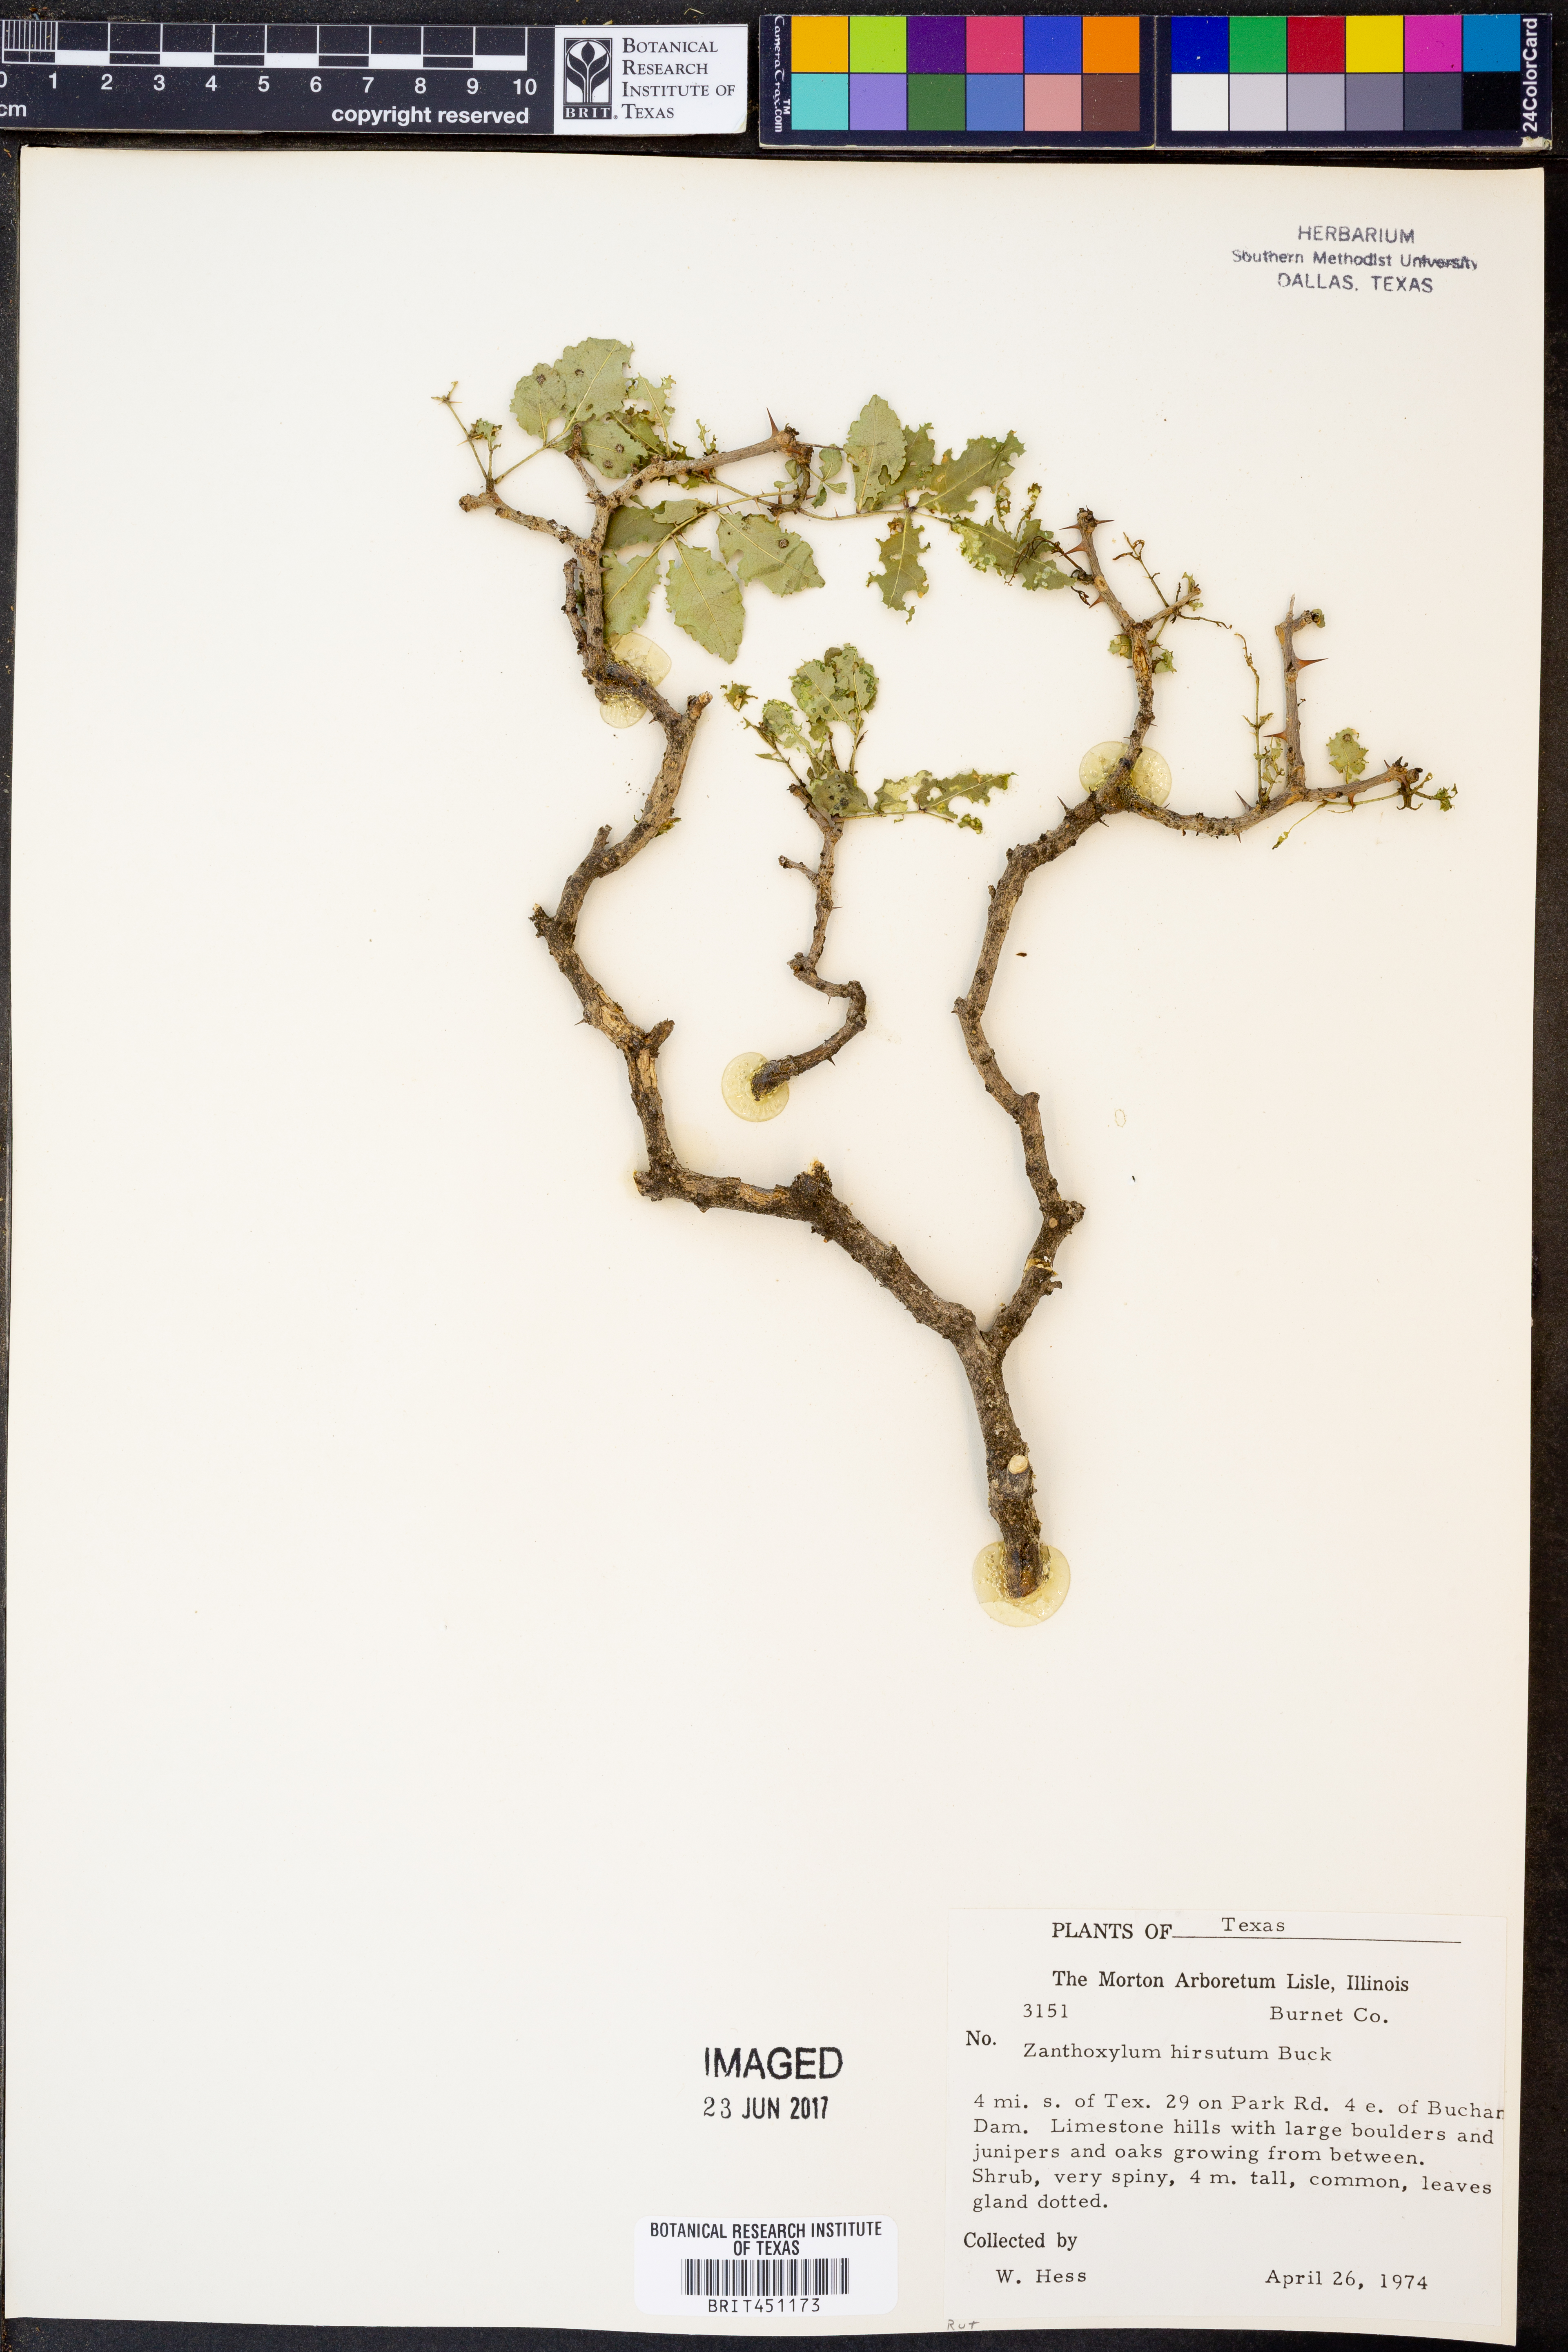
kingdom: Plantae
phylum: Tracheophyta
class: Magnoliopsida
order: Sapindales
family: Rutaceae
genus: Zanthoxylum
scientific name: Zanthoxylum clava-herculis
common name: Hercules'-club
